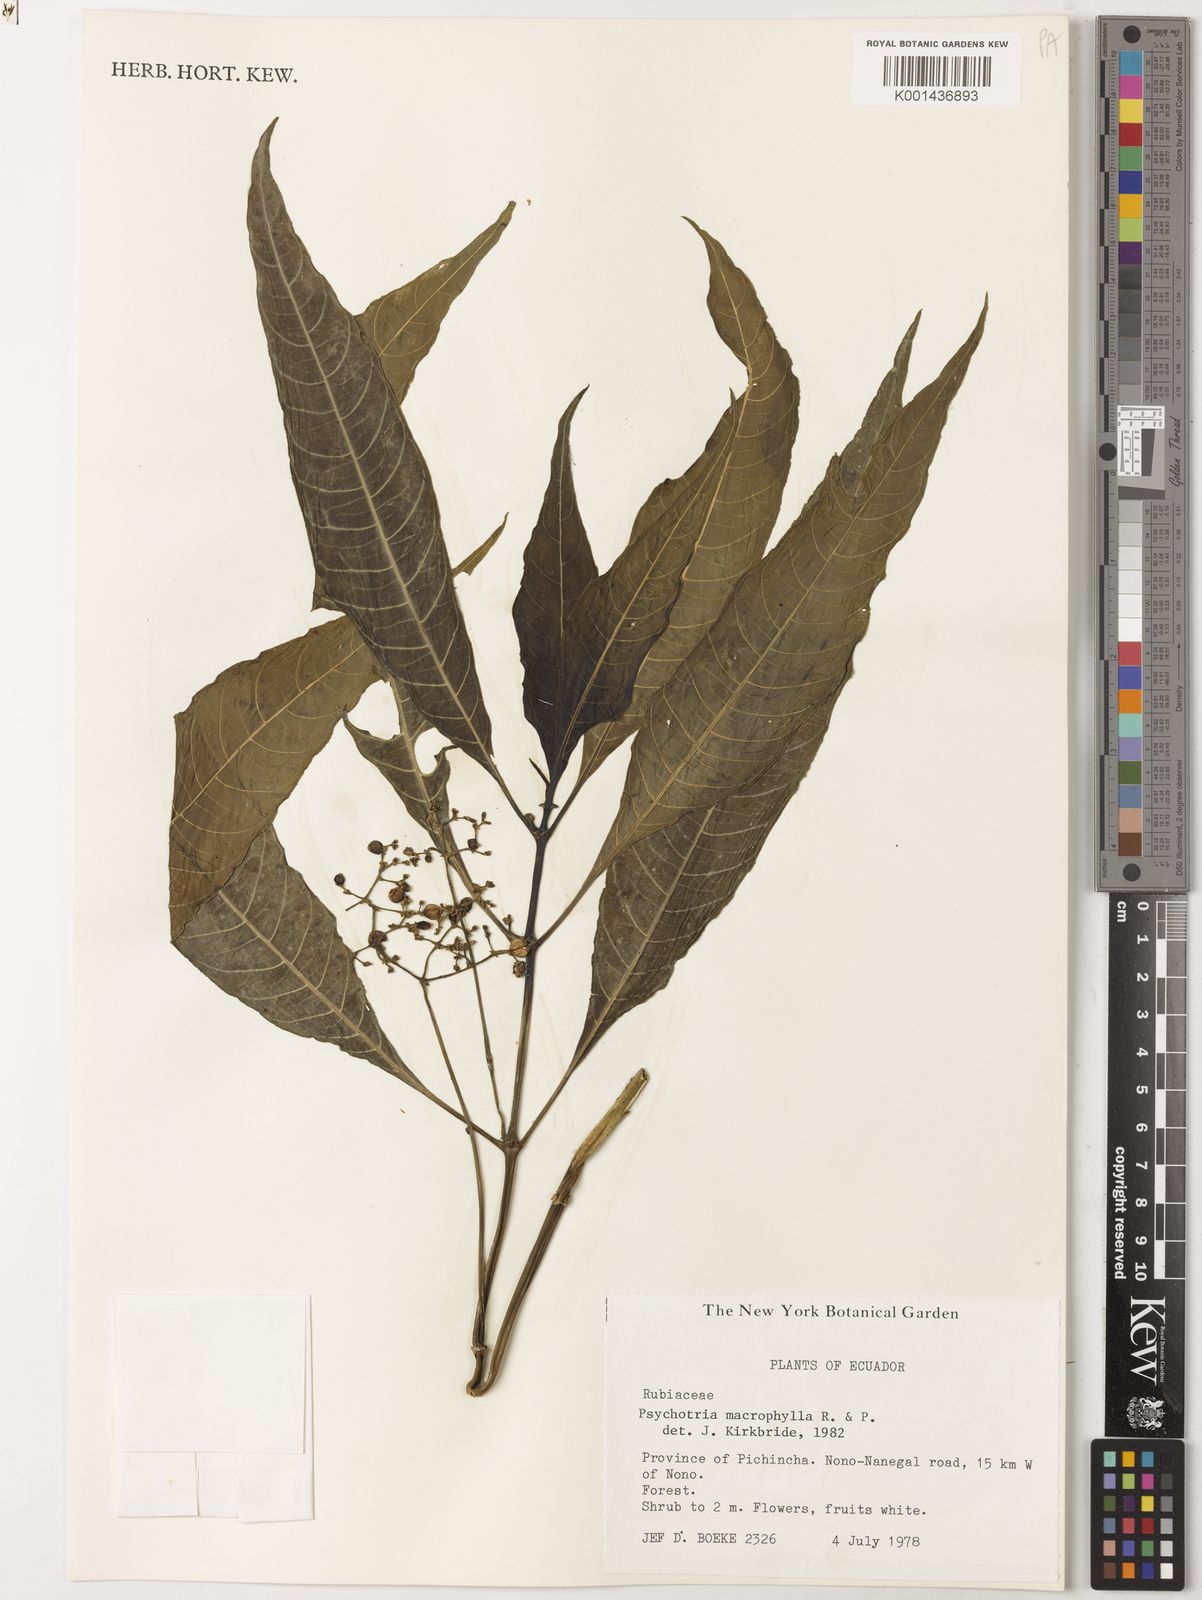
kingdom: Plantae
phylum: Tracheophyta
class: Magnoliopsida
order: Gentianales
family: Rubiaceae
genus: Notopleura
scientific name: Notopleura
